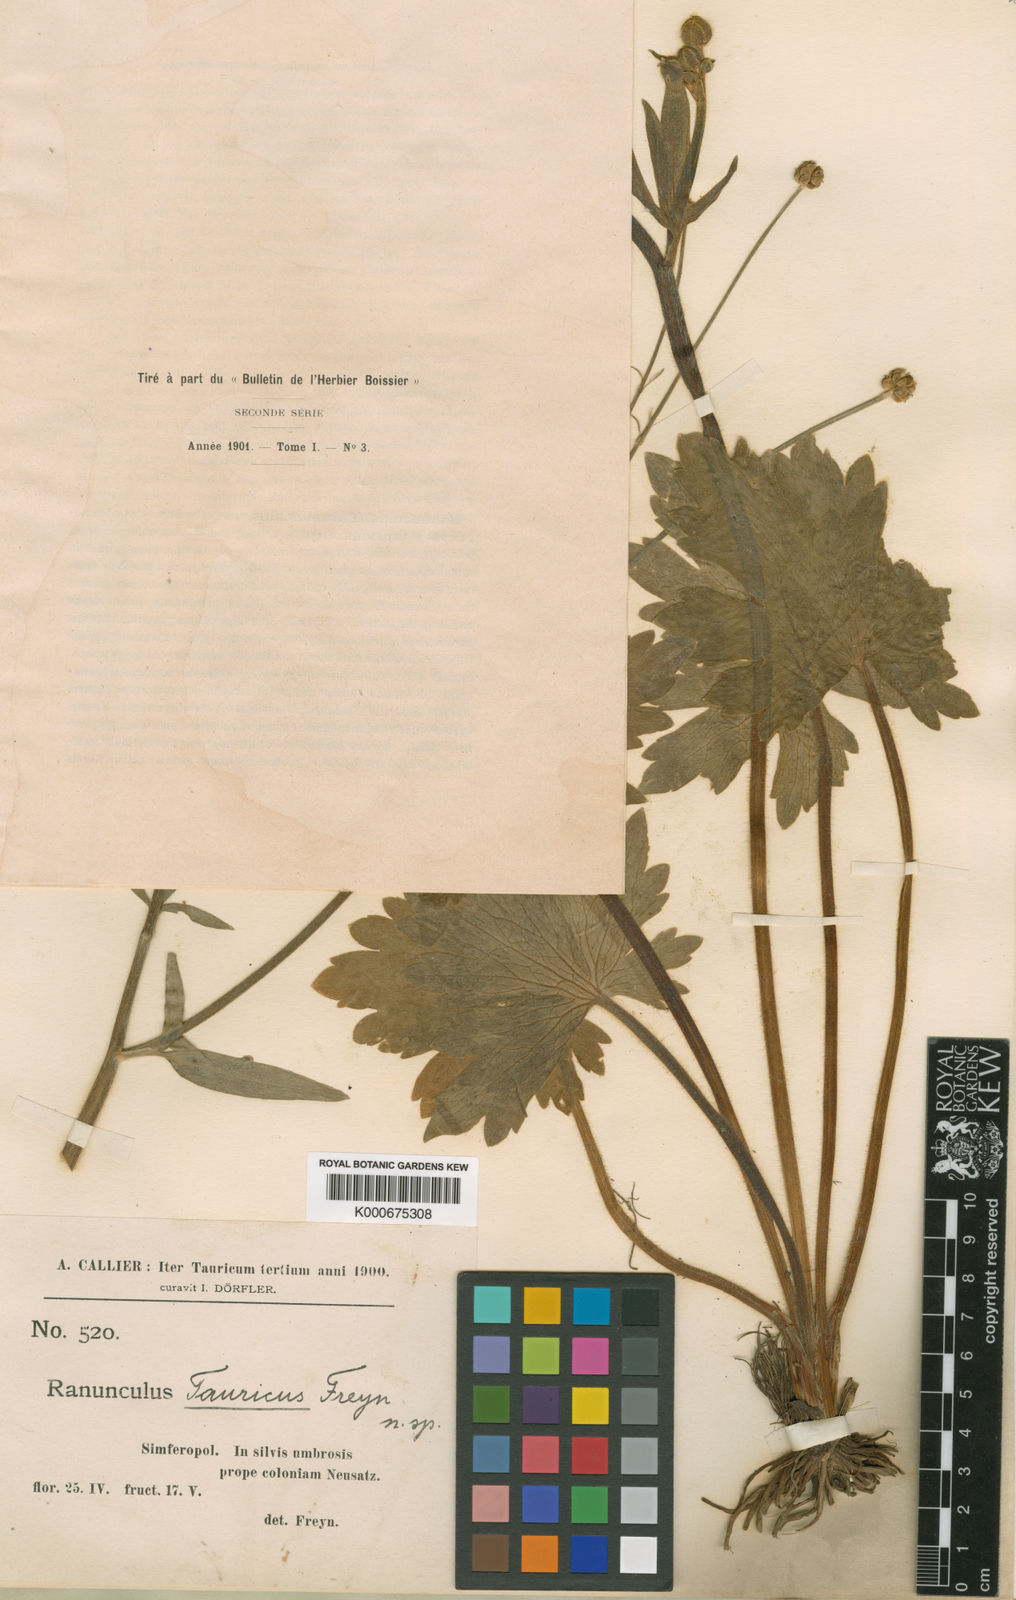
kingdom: Plantae
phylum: Tracheophyta
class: Magnoliopsida
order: Ranunculales
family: Ranunculaceae
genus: Ranunculus
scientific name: Ranunculus constantinopolitanus
